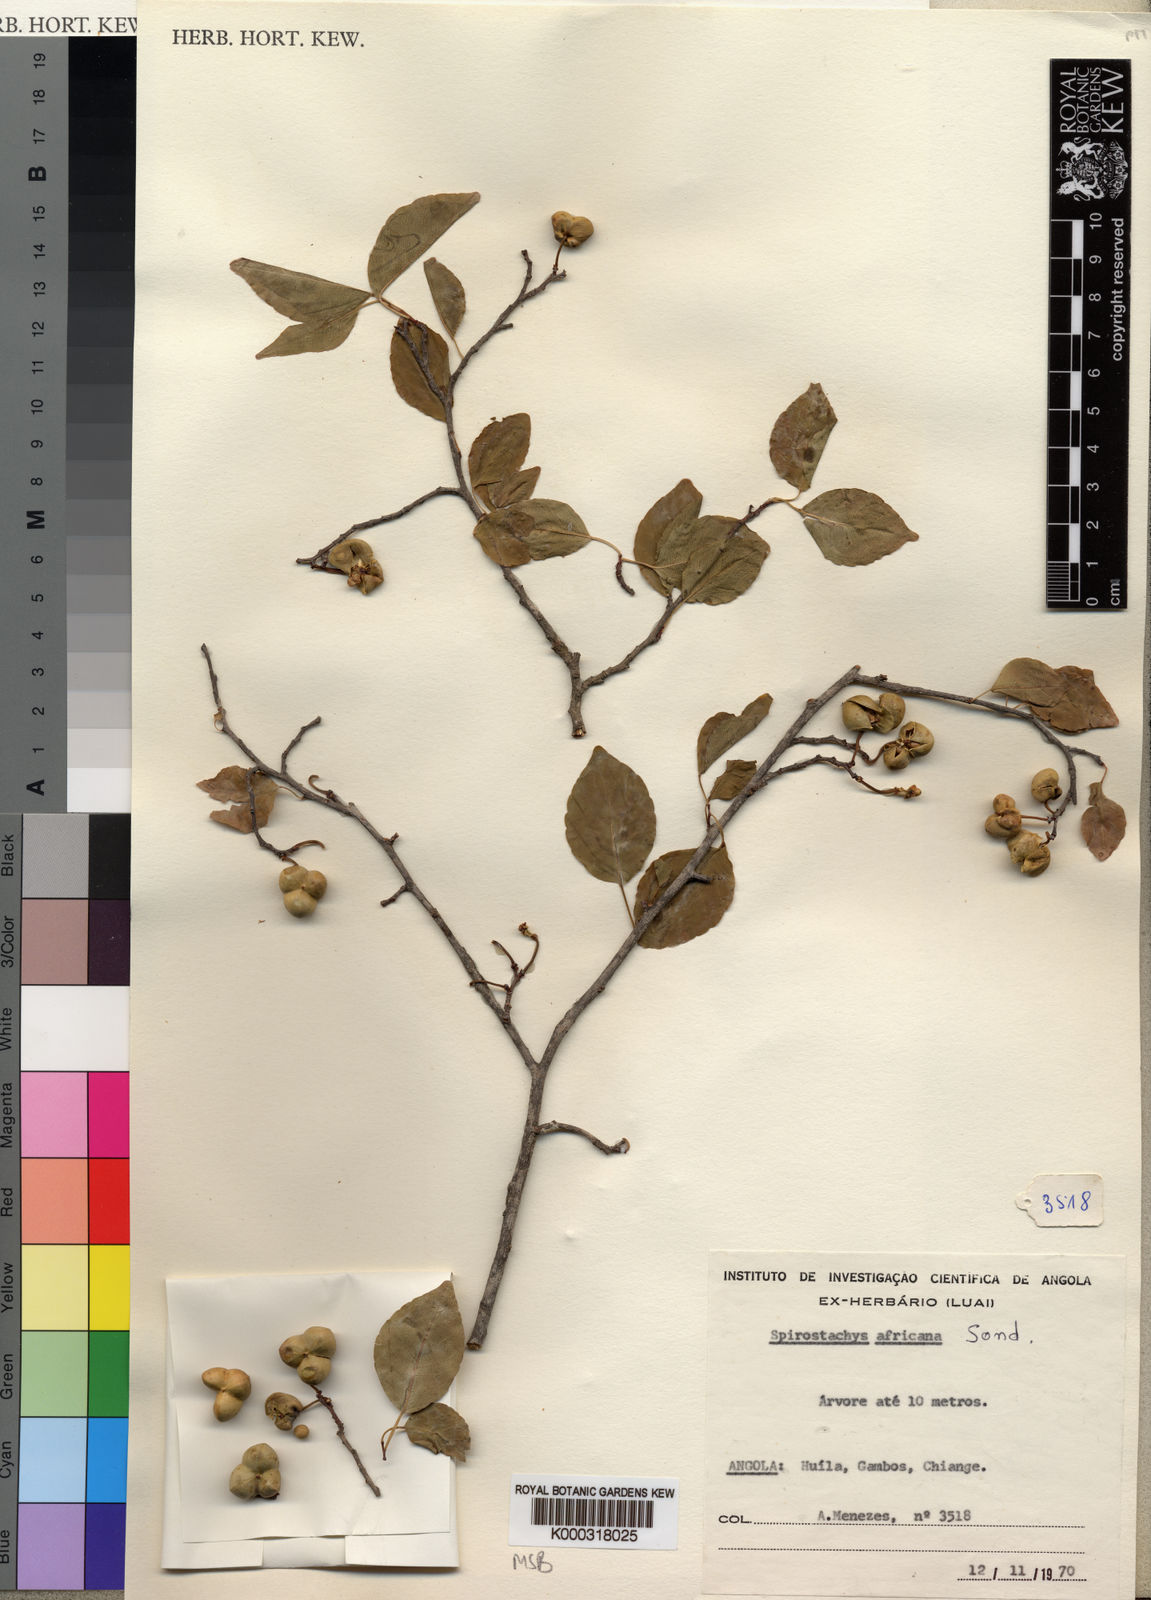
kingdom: Plantae
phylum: Tracheophyta
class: Magnoliopsida
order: Malpighiales
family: Euphorbiaceae
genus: Spirostachys
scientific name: Spirostachys africana
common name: Tamboti
